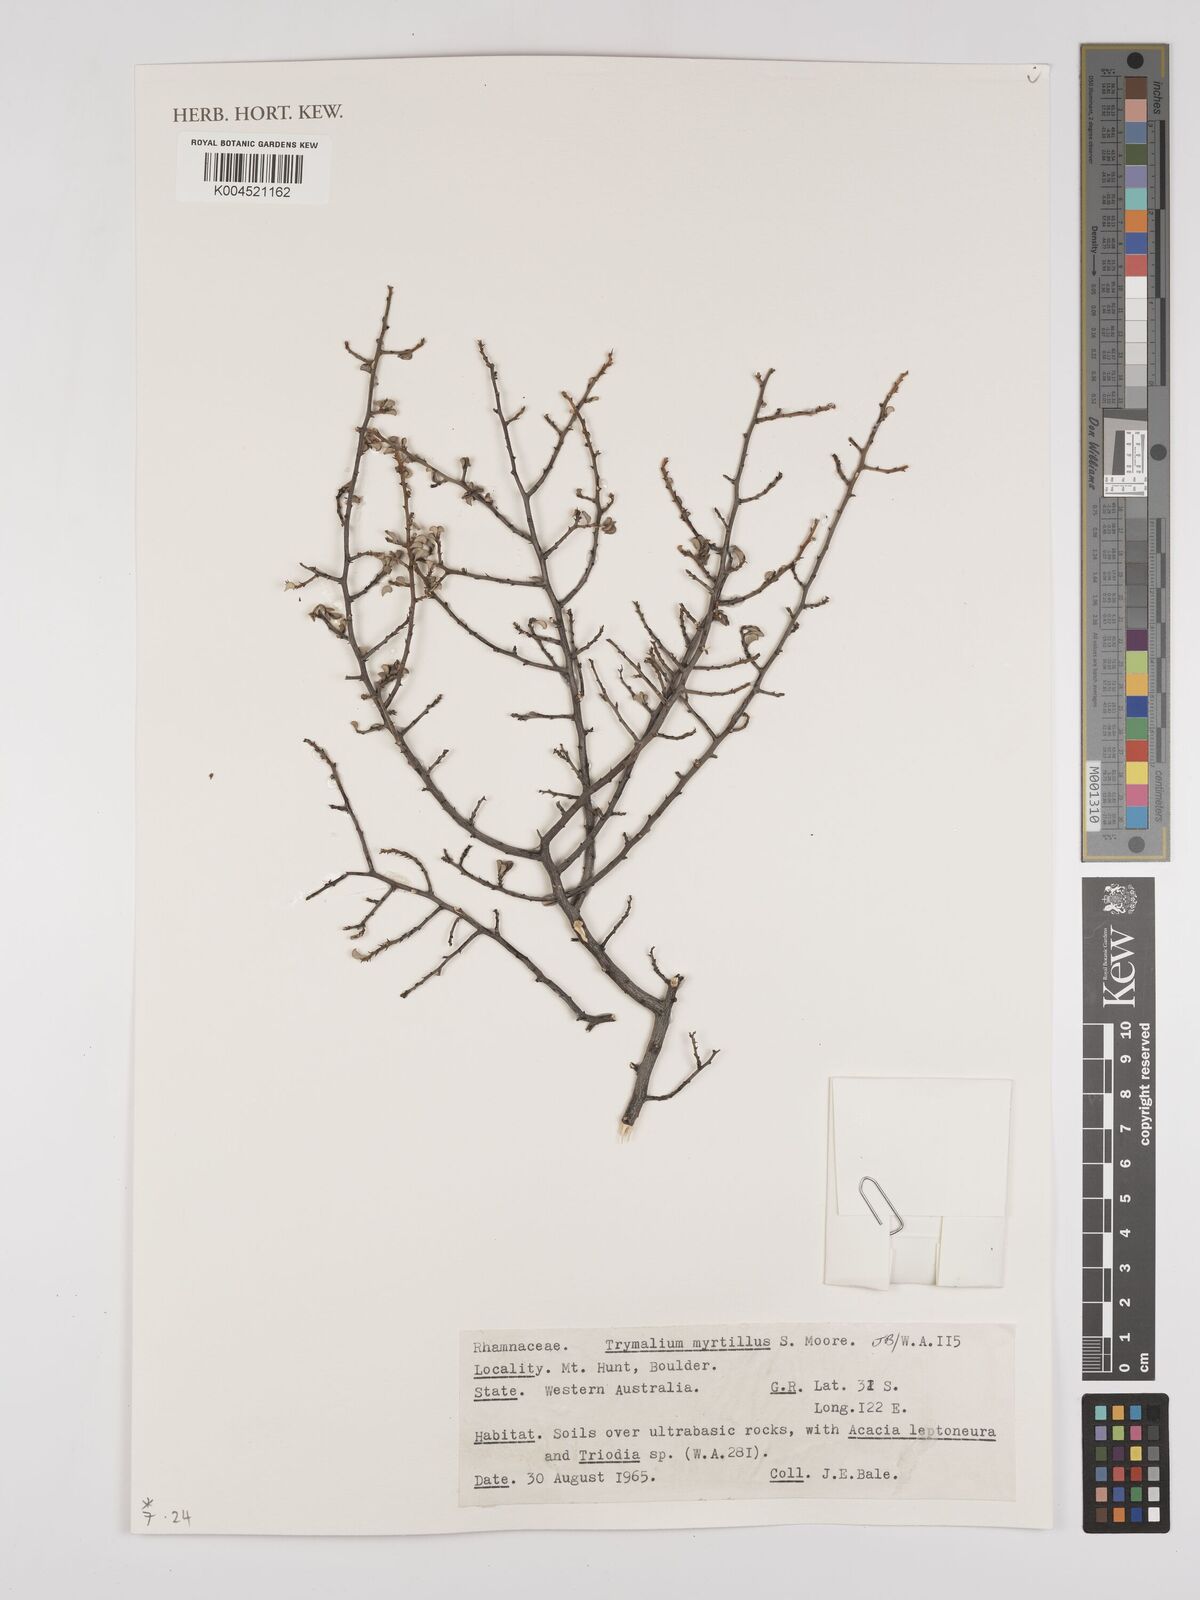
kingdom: Plantae
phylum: Tracheophyta
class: Magnoliopsida
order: Rosales
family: Rhamnaceae
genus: Trymalium
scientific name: Trymalium myrtillus
